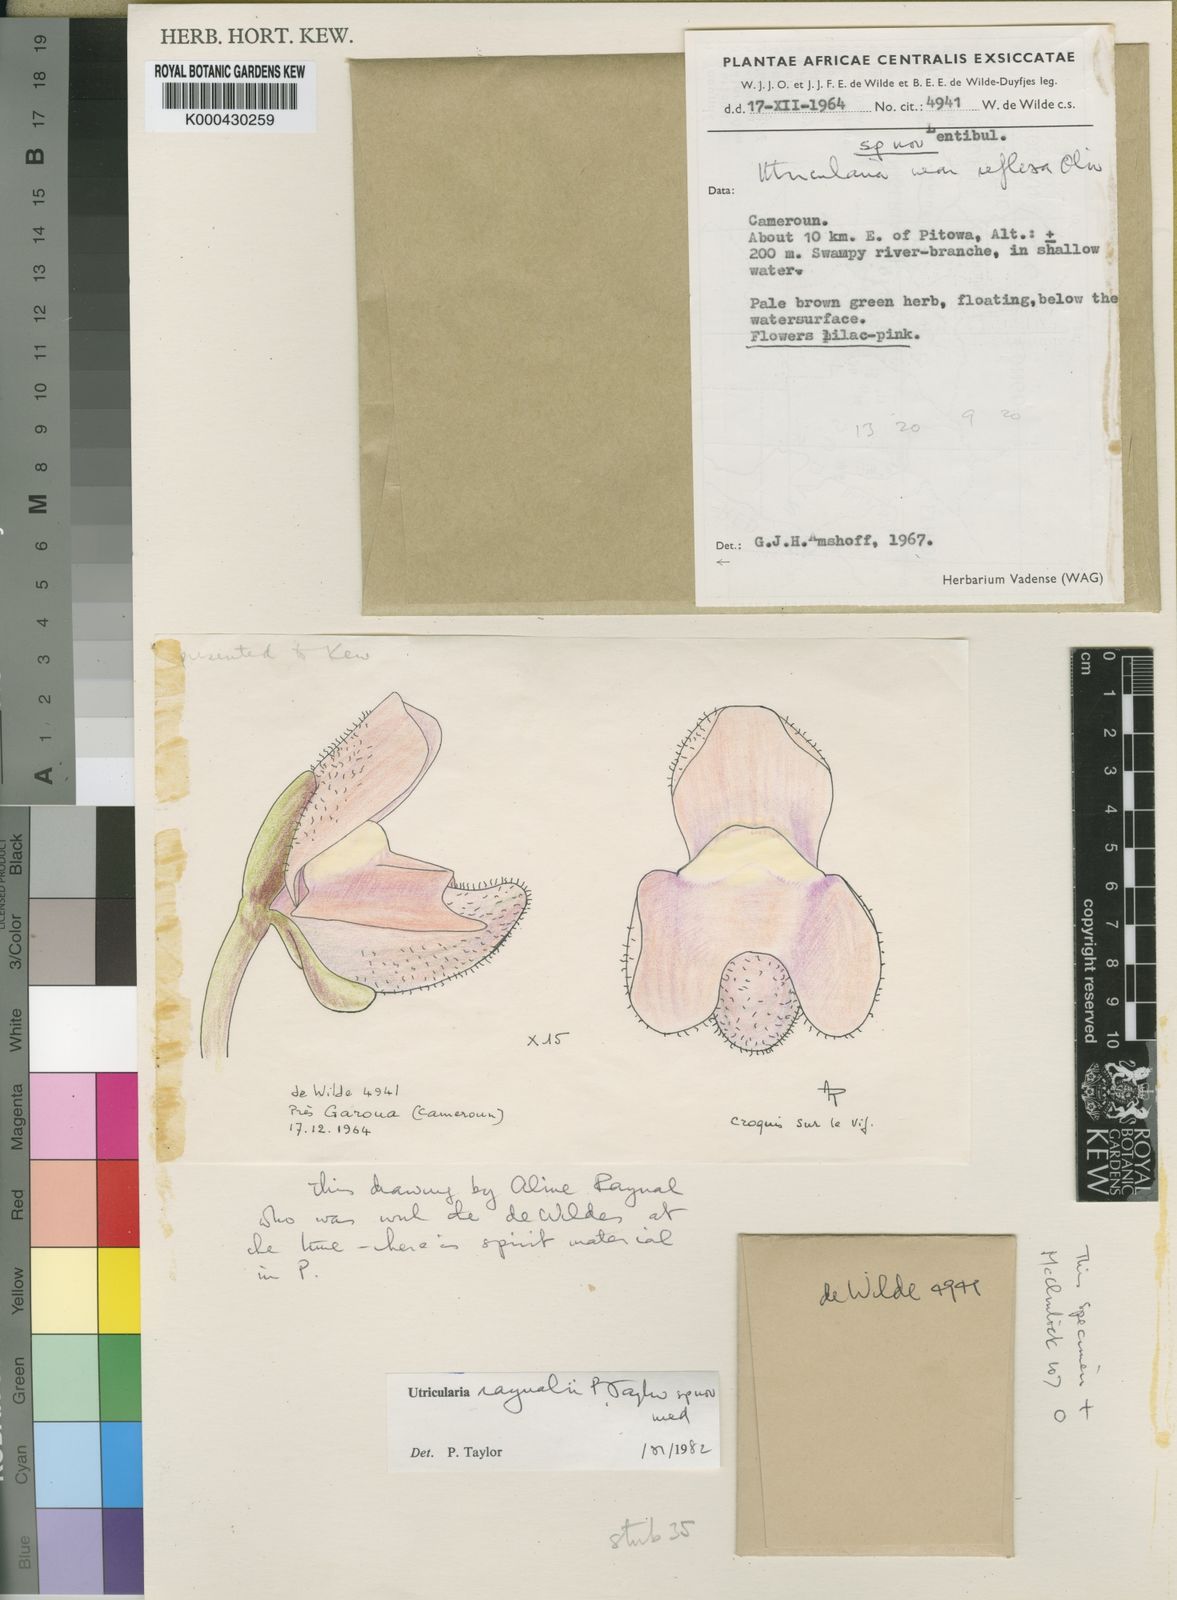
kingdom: Plantae
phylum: Tracheophyta
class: Magnoliopsida
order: Lamiales
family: Lentibulariaceae
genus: Utricularia
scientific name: Utricularia raynalii
